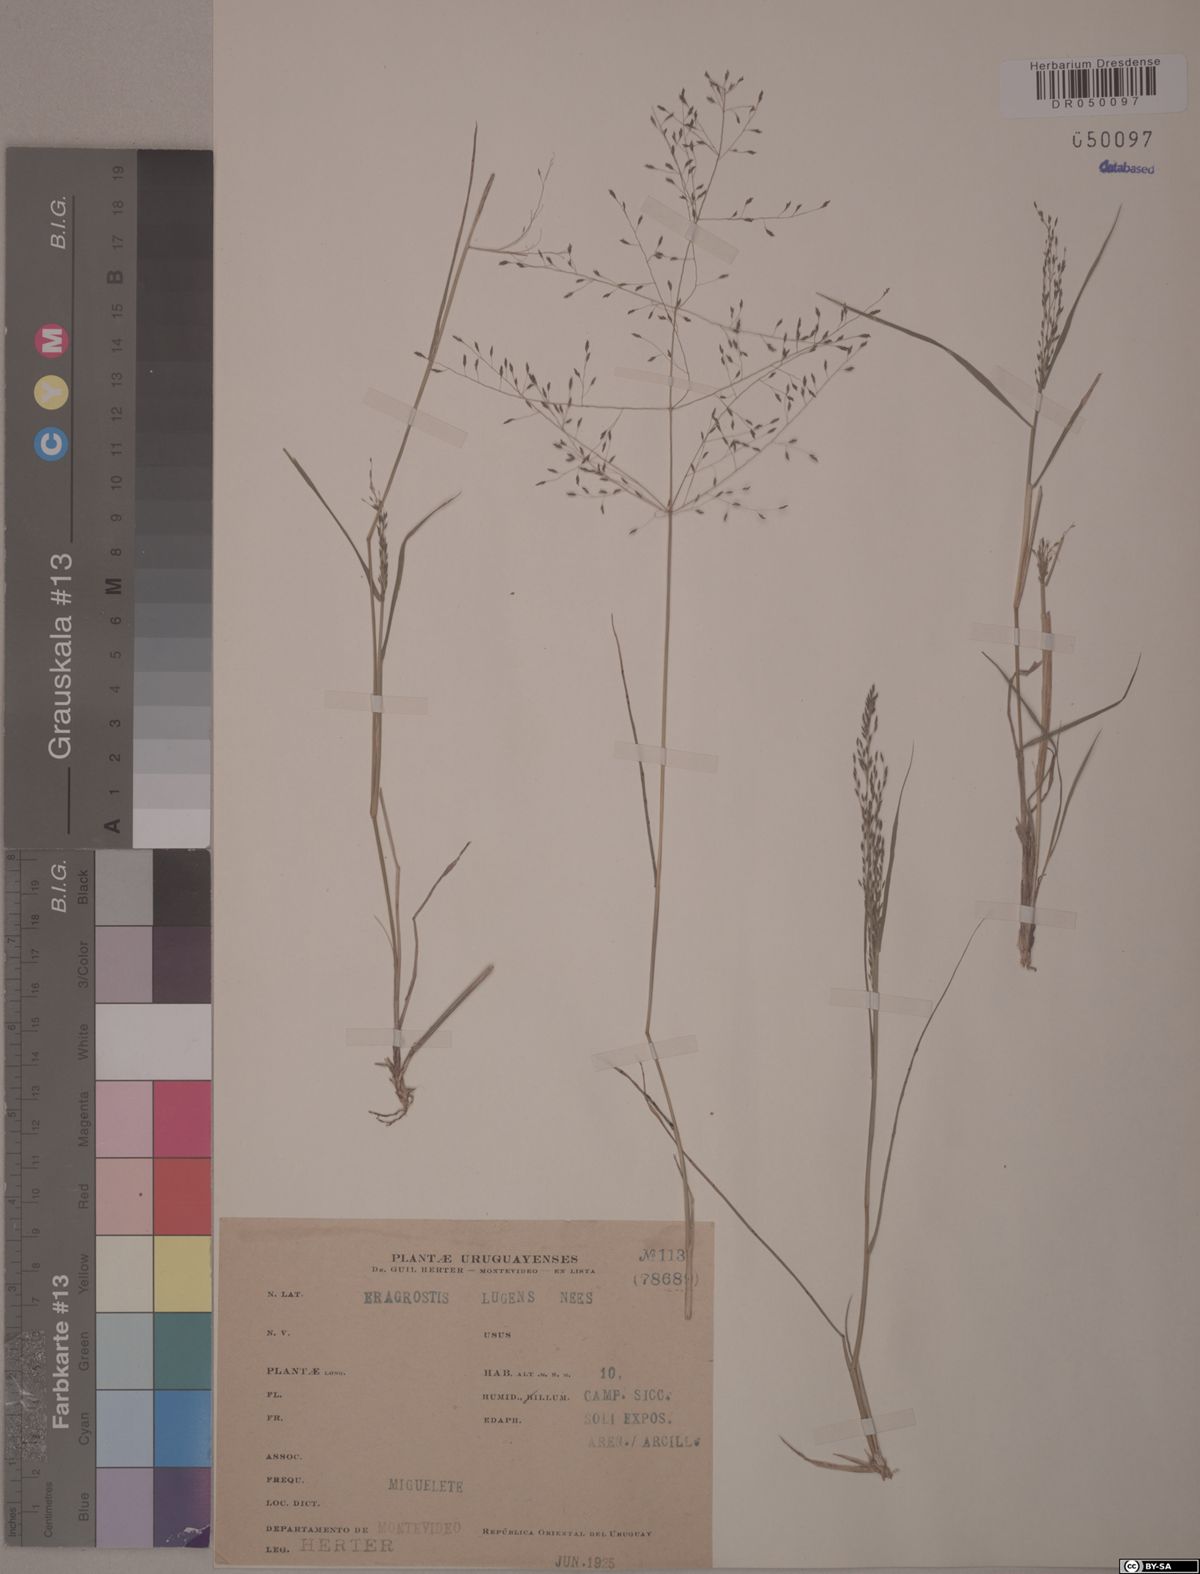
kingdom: Plantae
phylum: Tracheophyta
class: Liliopsida
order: Poales
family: Poaceae
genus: Eragrostis
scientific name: Eragrostis lugens
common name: Mourning love grass
